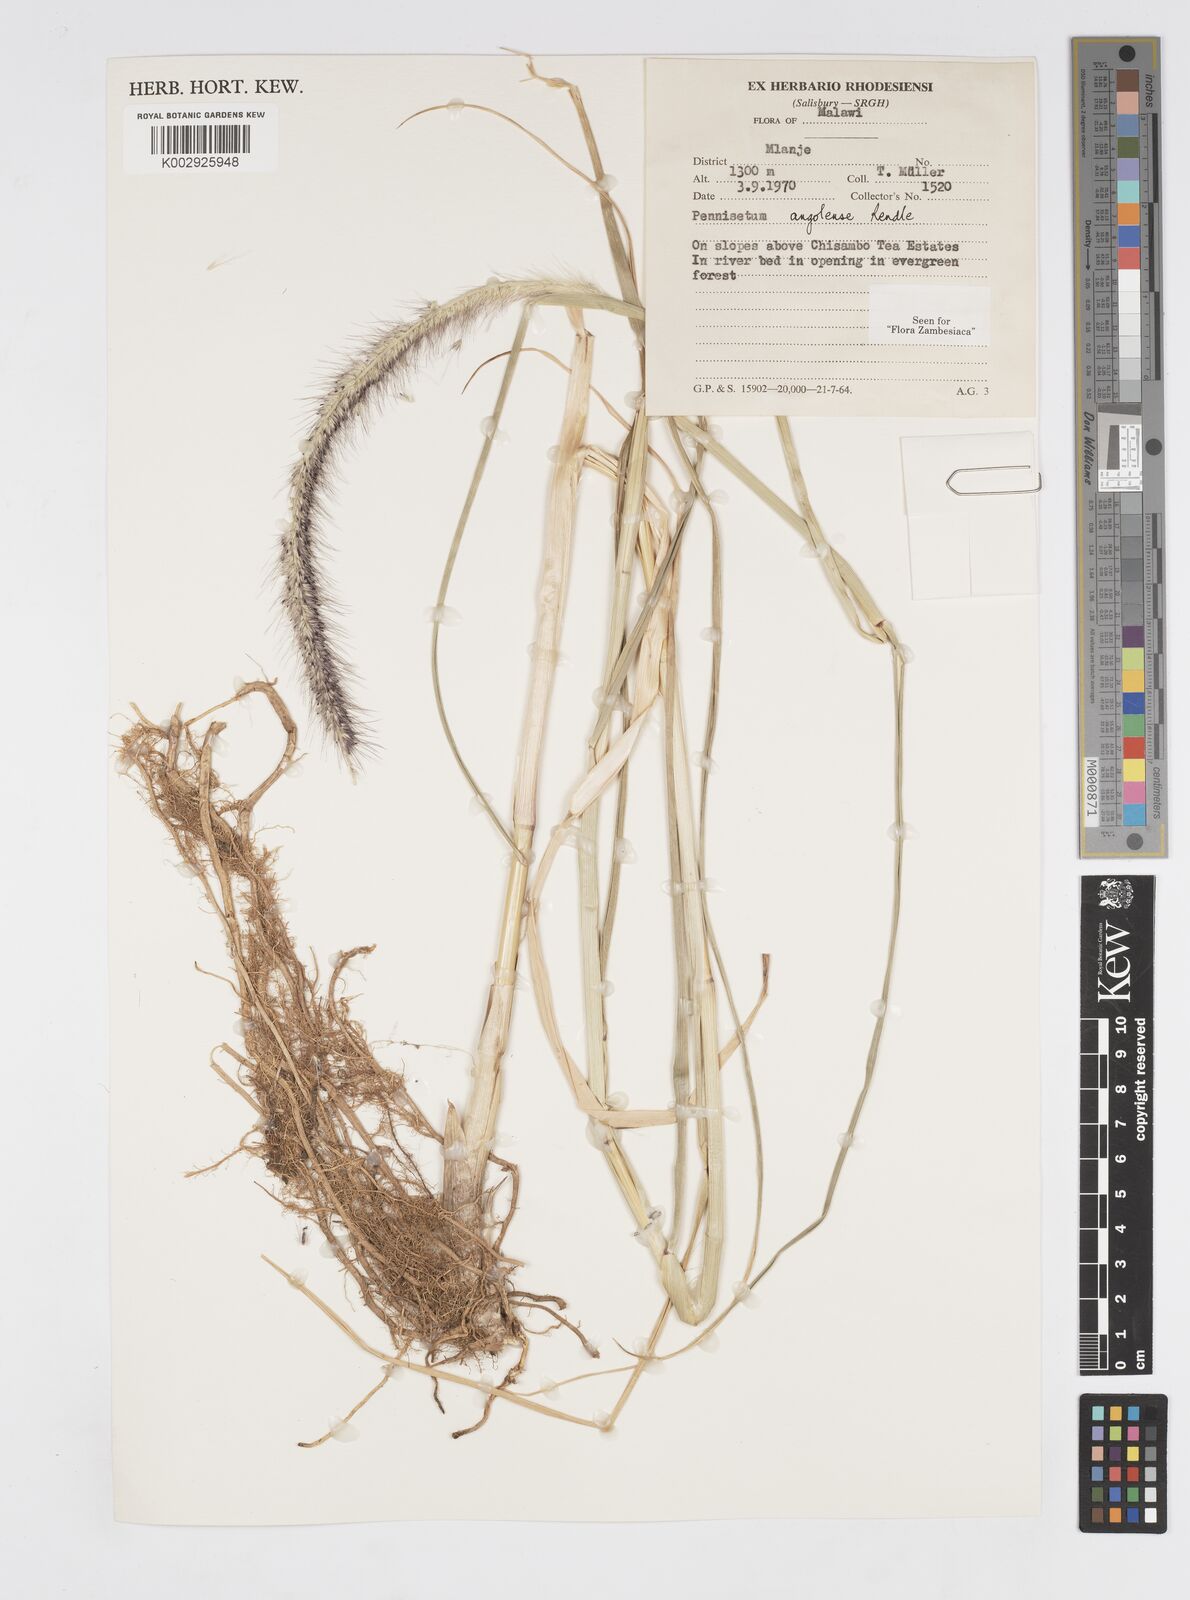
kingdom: Plantae
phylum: Tracheophyta
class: Liliopsida
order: Poales
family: Poaceae
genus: Cenchrus
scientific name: Cenchrus caudatus
